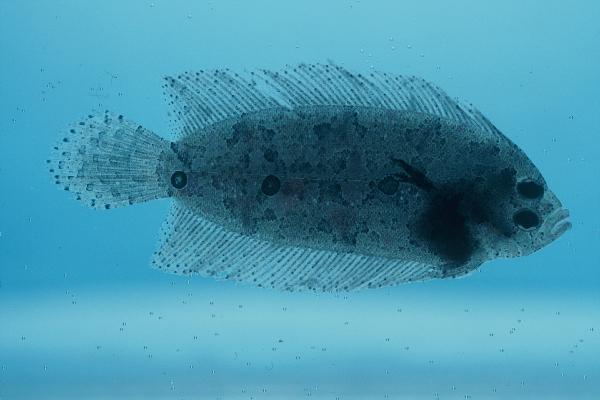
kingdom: Animalia
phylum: Chordata
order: Pleuronectiformes
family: Samaridae
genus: Samariscus
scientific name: Samariscus triocellatus
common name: Three-spot righteye flounder
